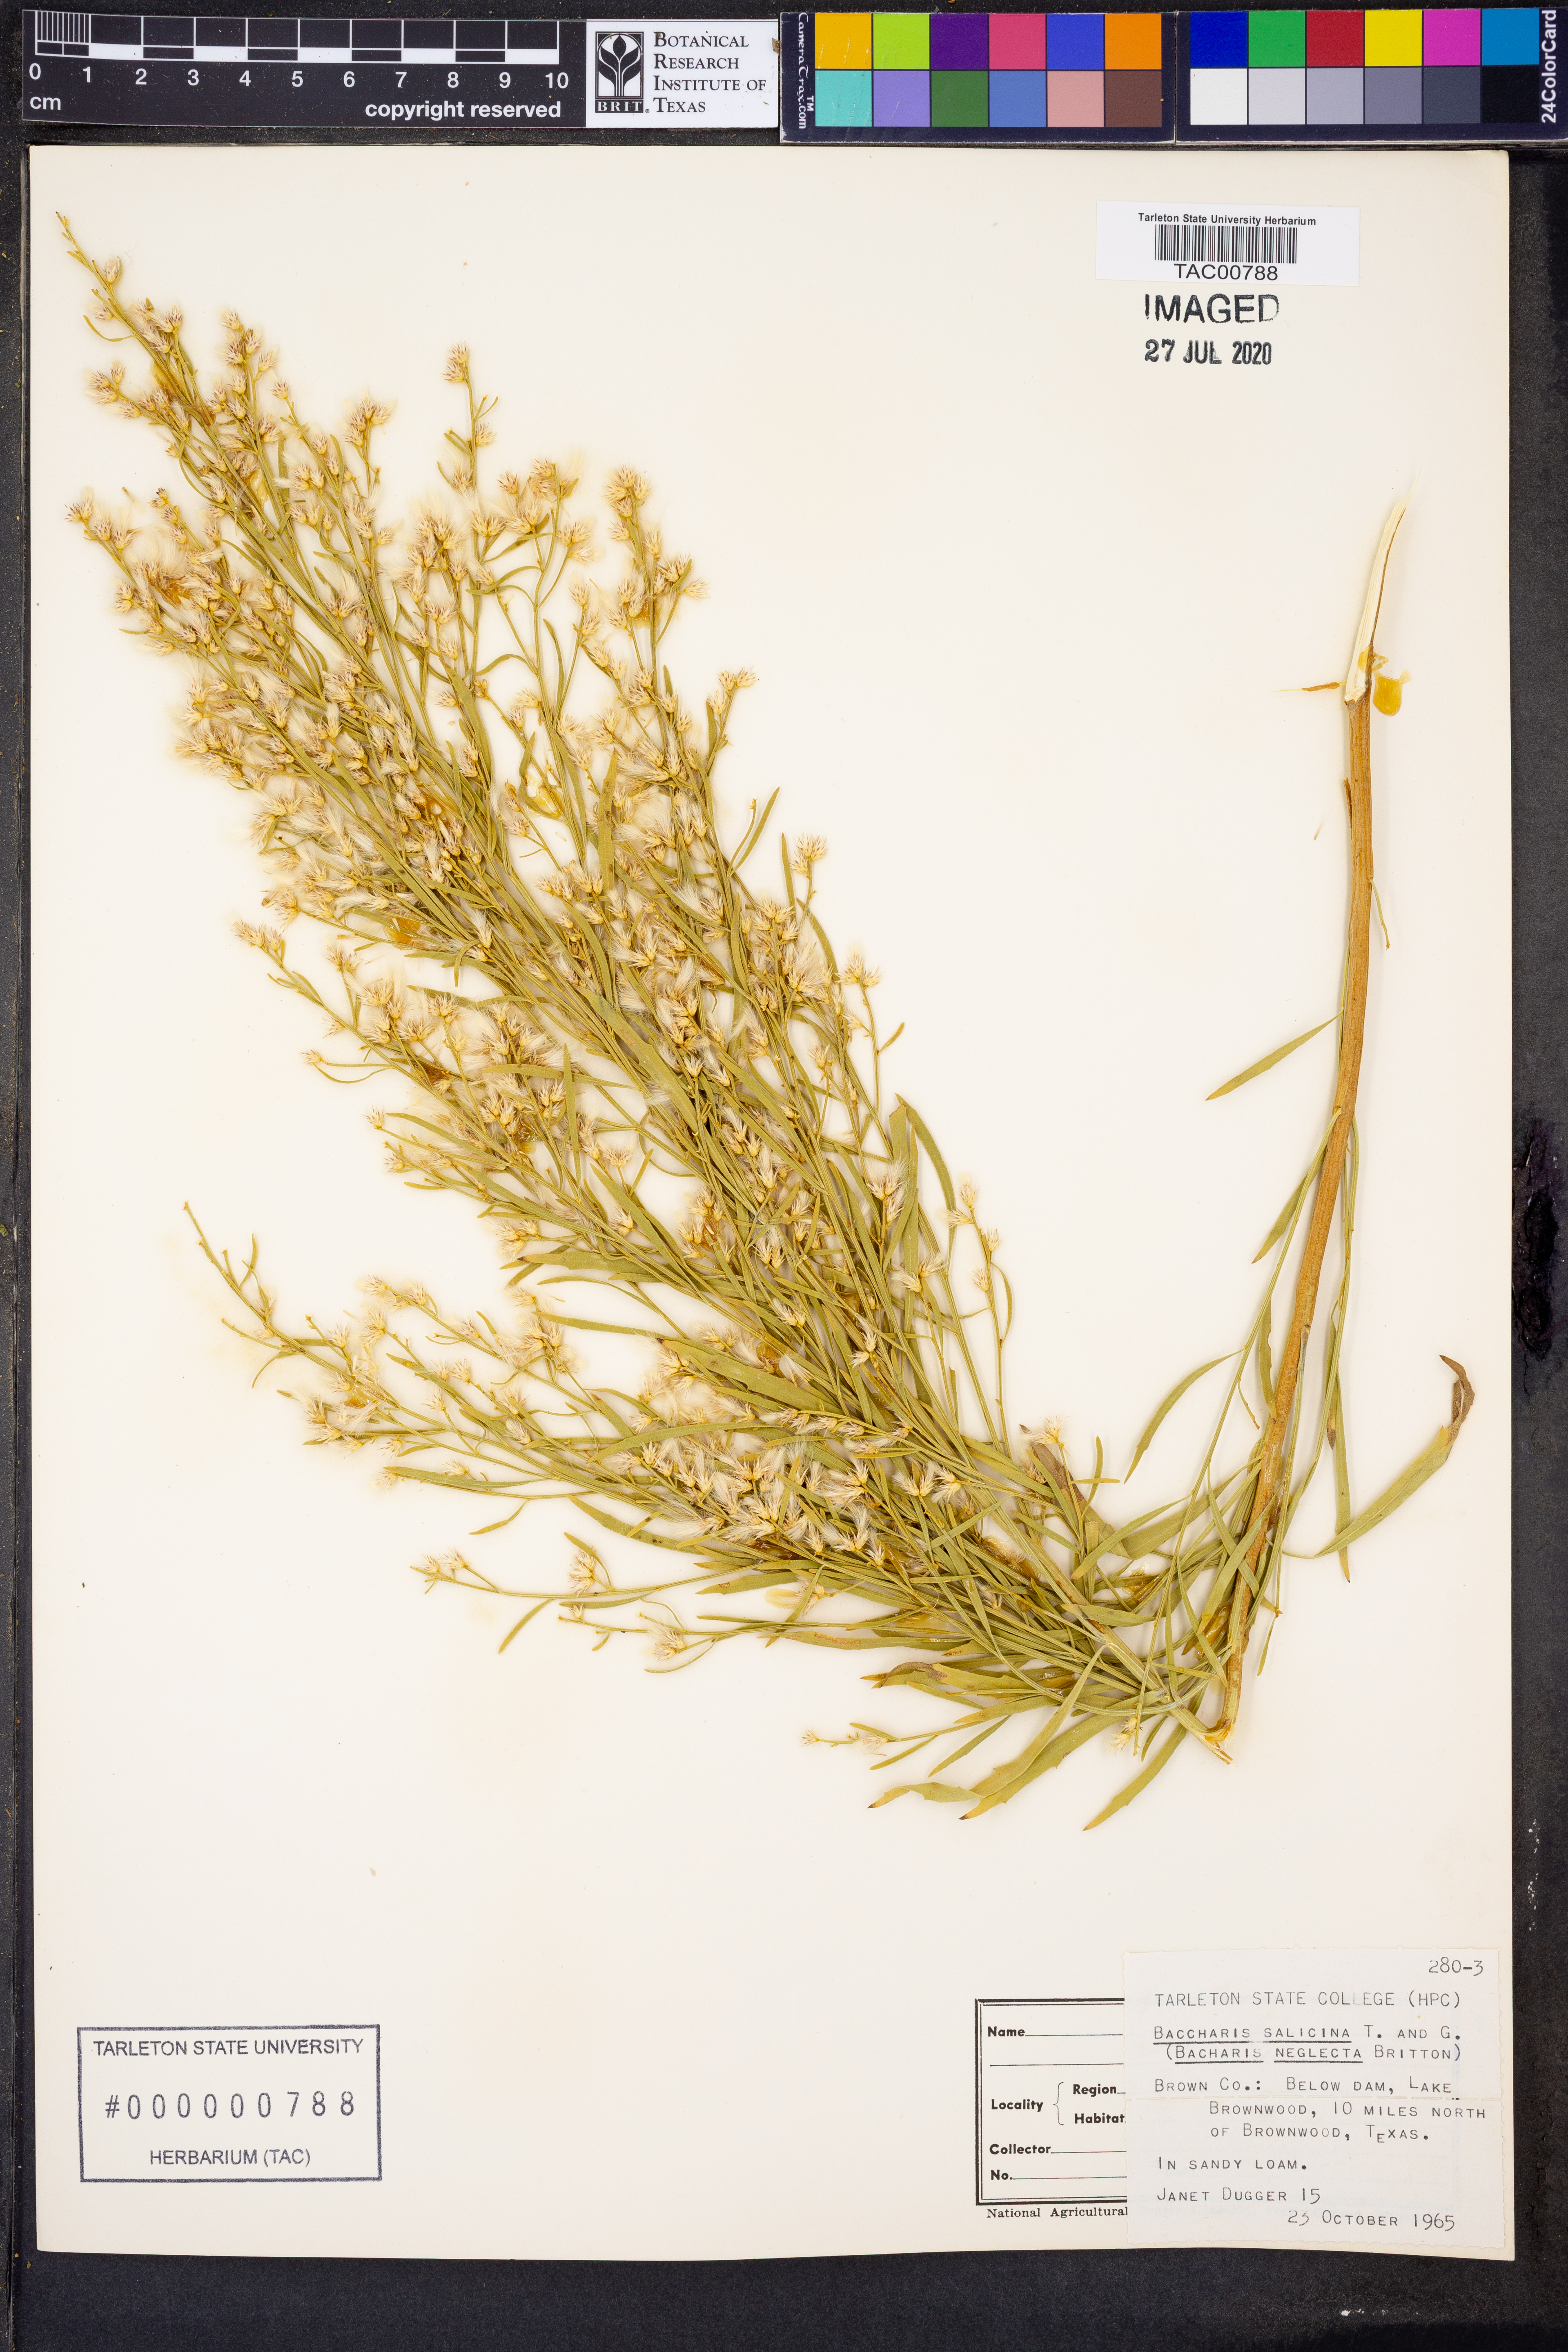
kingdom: Plantae
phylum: Tracheophyta
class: Magnoliopsida
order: Asterales
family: Asteraceae
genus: Baccharis
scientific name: Baccharis salicina
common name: Willow baccharis
